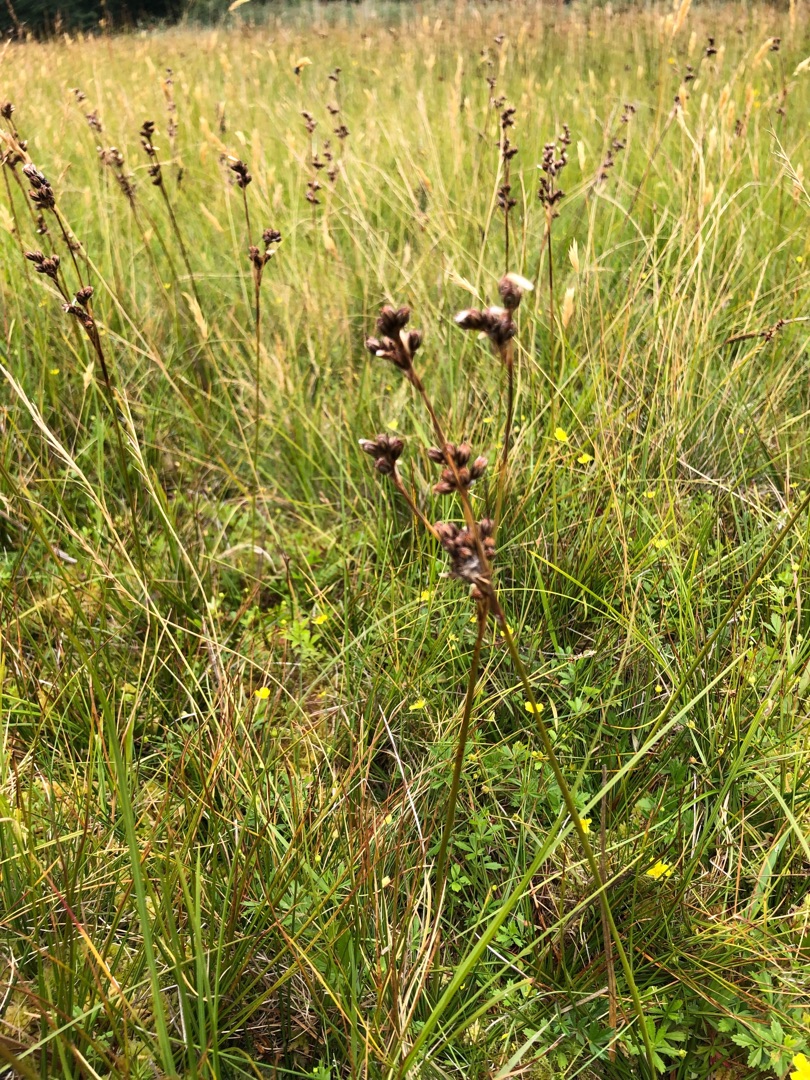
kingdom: Plantae
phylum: Tracheophyta
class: Liliopsida
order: Poales
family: Juncaceae
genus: Juncus
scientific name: Juncus squarrosus
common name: Børste-siv
